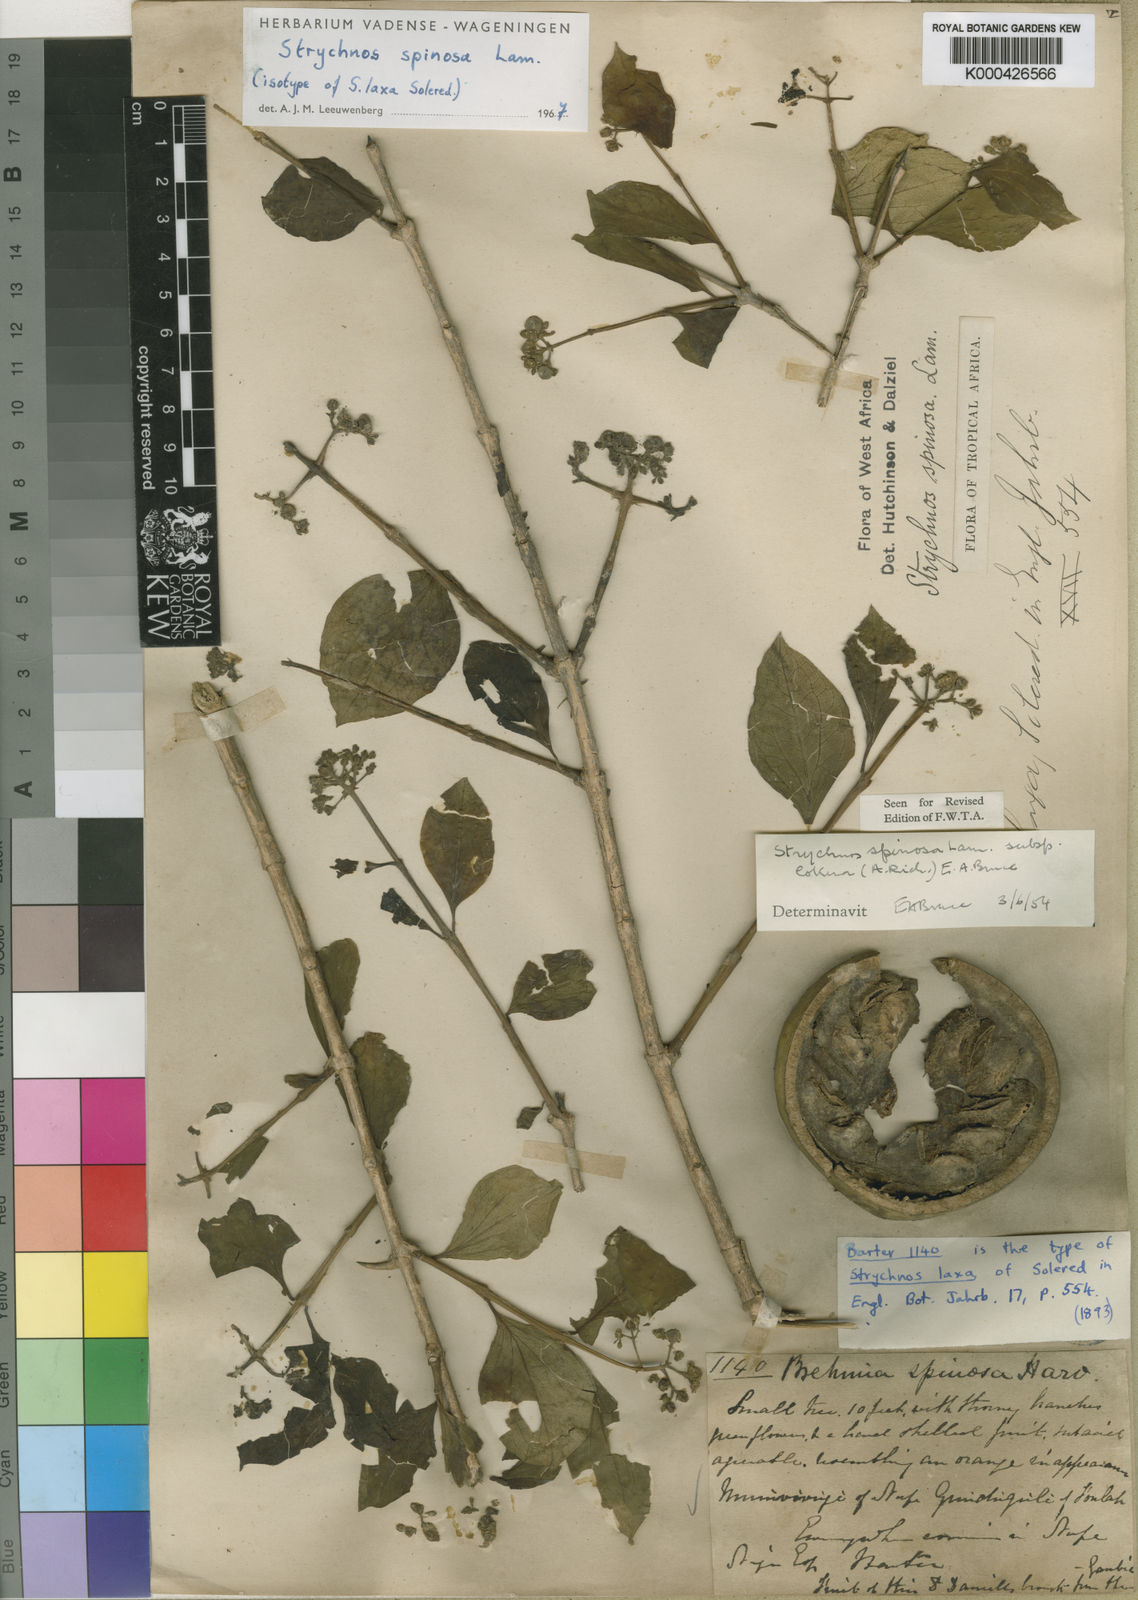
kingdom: Plantae
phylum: Tracheophyta
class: Magnoliopsida
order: Gentianales
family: Loganiaceae
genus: Strychnos
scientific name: Strychnos spinosa
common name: Natal orange
